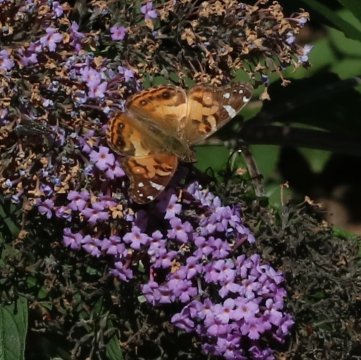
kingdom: Animalia
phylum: Arthropoda
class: Insecta
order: Lepidoptera
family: Nymphalidae
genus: Vanessa
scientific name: Vanessa virginiensis
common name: American Lady
